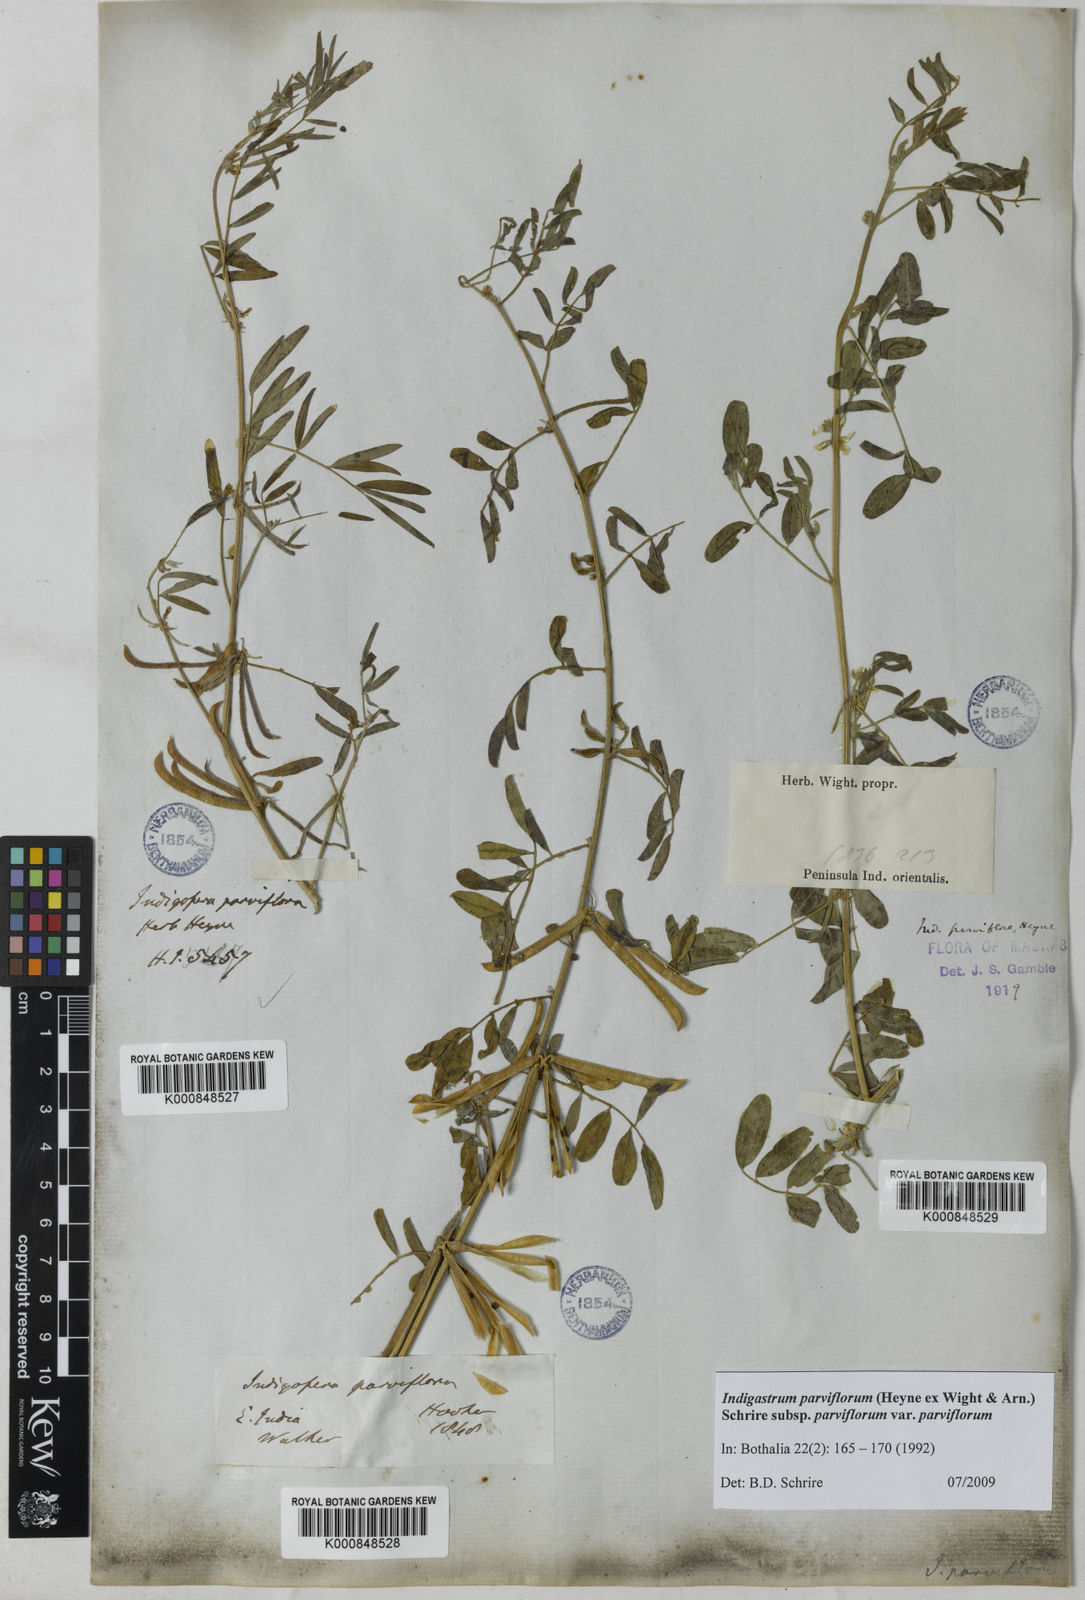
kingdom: Plantae
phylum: Tracheophyta
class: Magnoliopsida
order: Fabales
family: Fabaceae
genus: Indigastrum
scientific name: Indigastrum parviflorum
